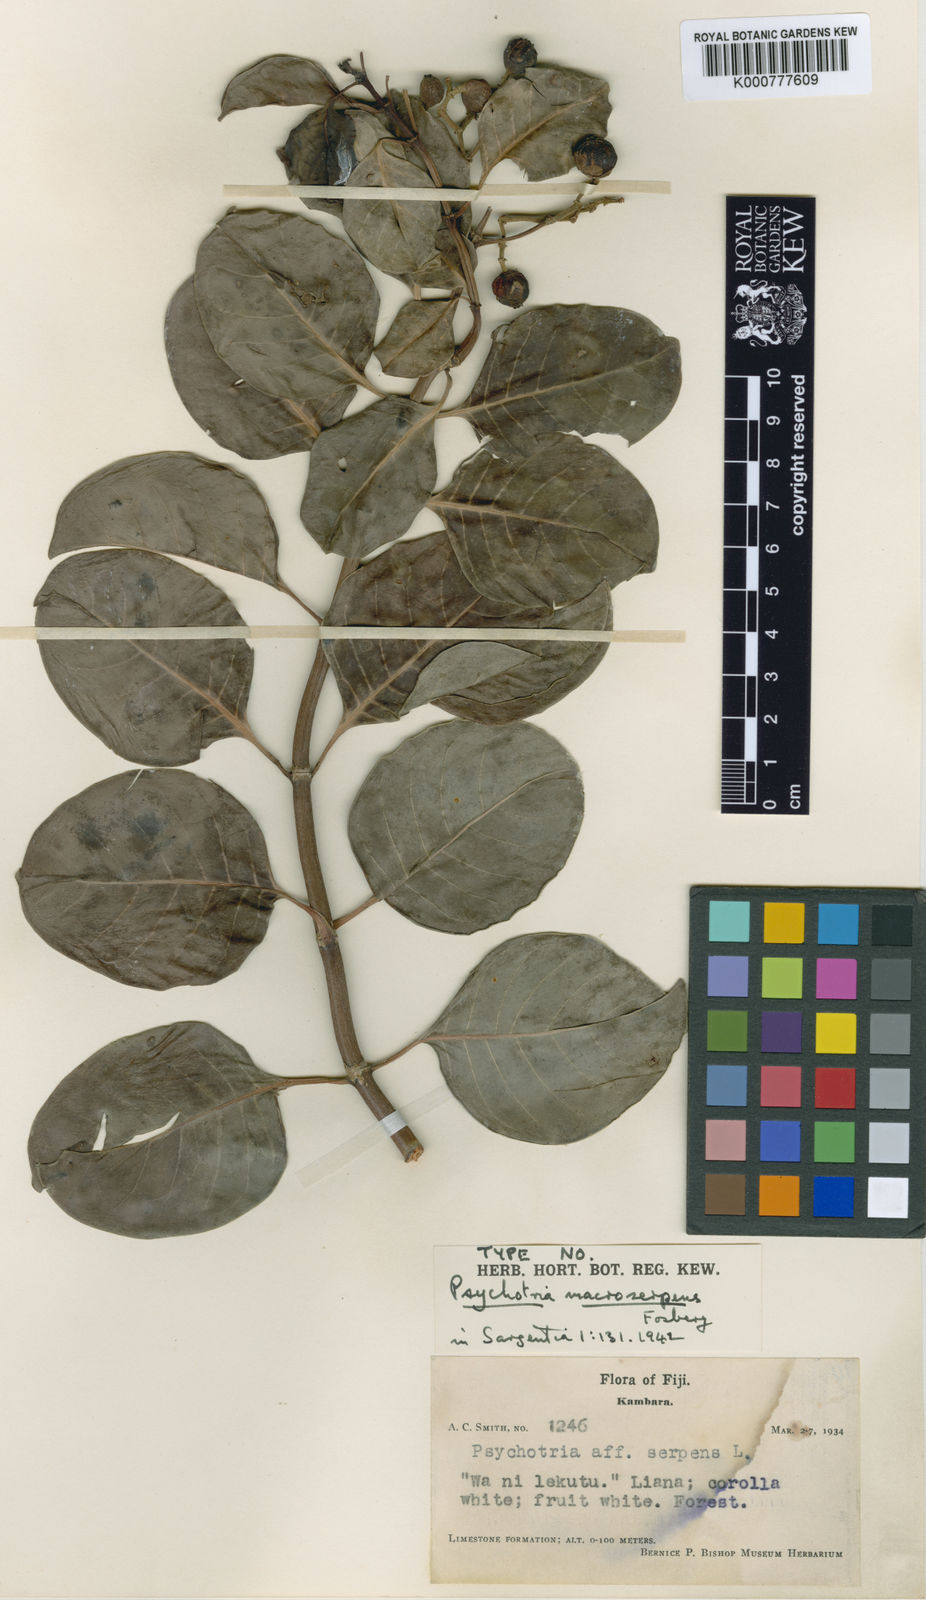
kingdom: Plantae
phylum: Tracheophyta
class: Magnoliopsida
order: Gentianales
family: Rubiaceae
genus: Psychotria
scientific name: Psychotria macroserpens
